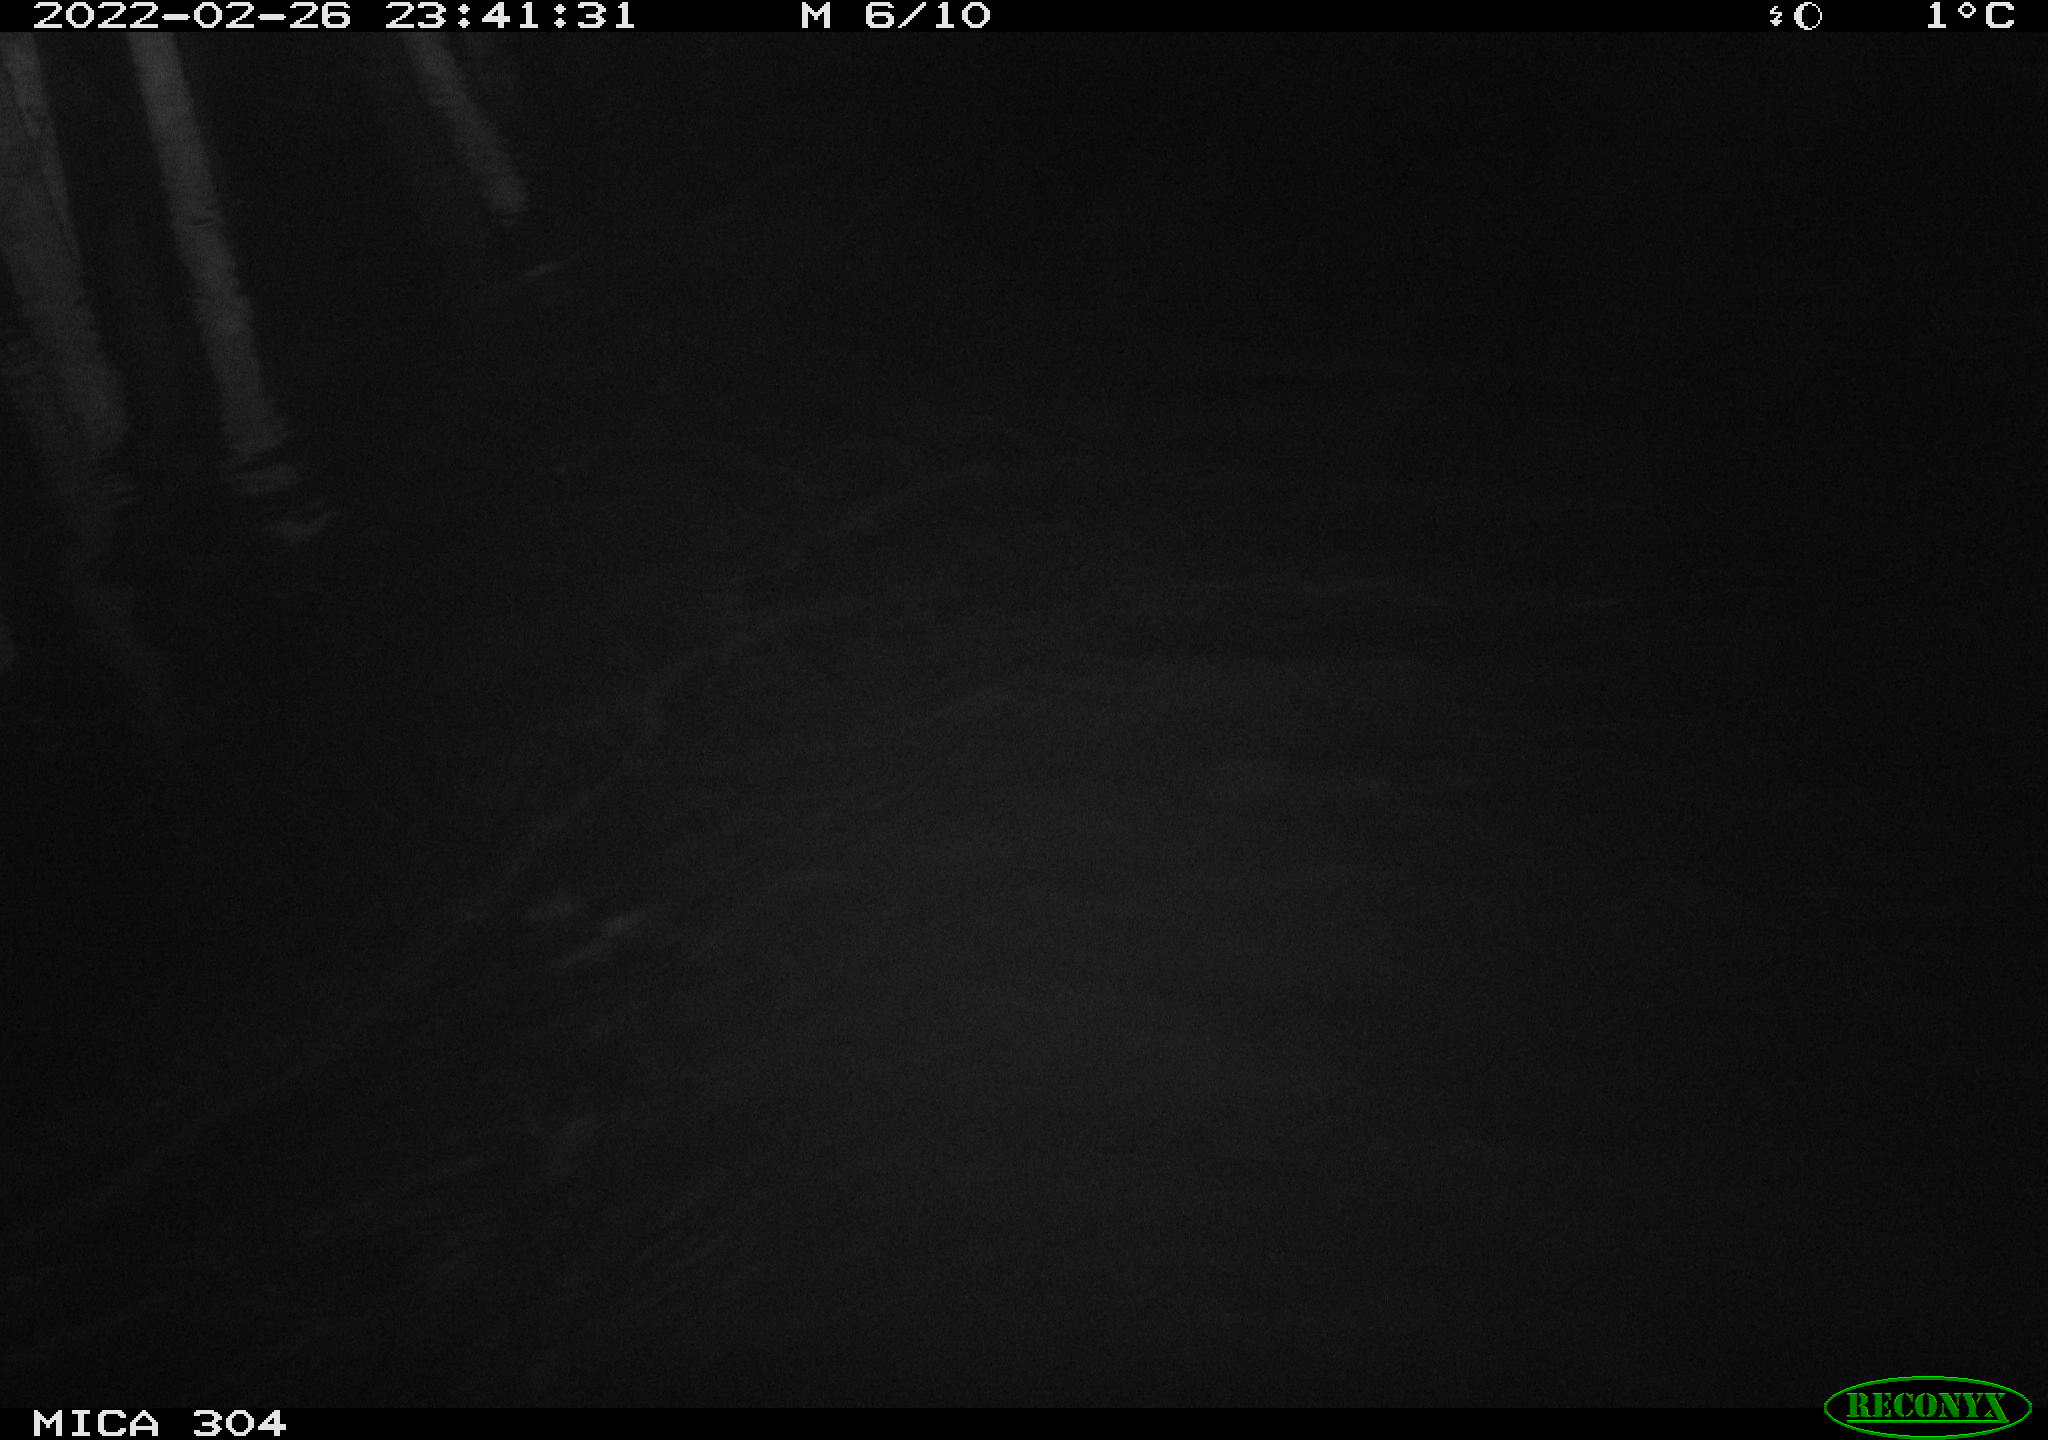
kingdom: Animalia
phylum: Chordata
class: Mammalia
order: Rodentia
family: Cricetidae
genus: Ondatra
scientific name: Ondatra zibethicus
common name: Muskrat
